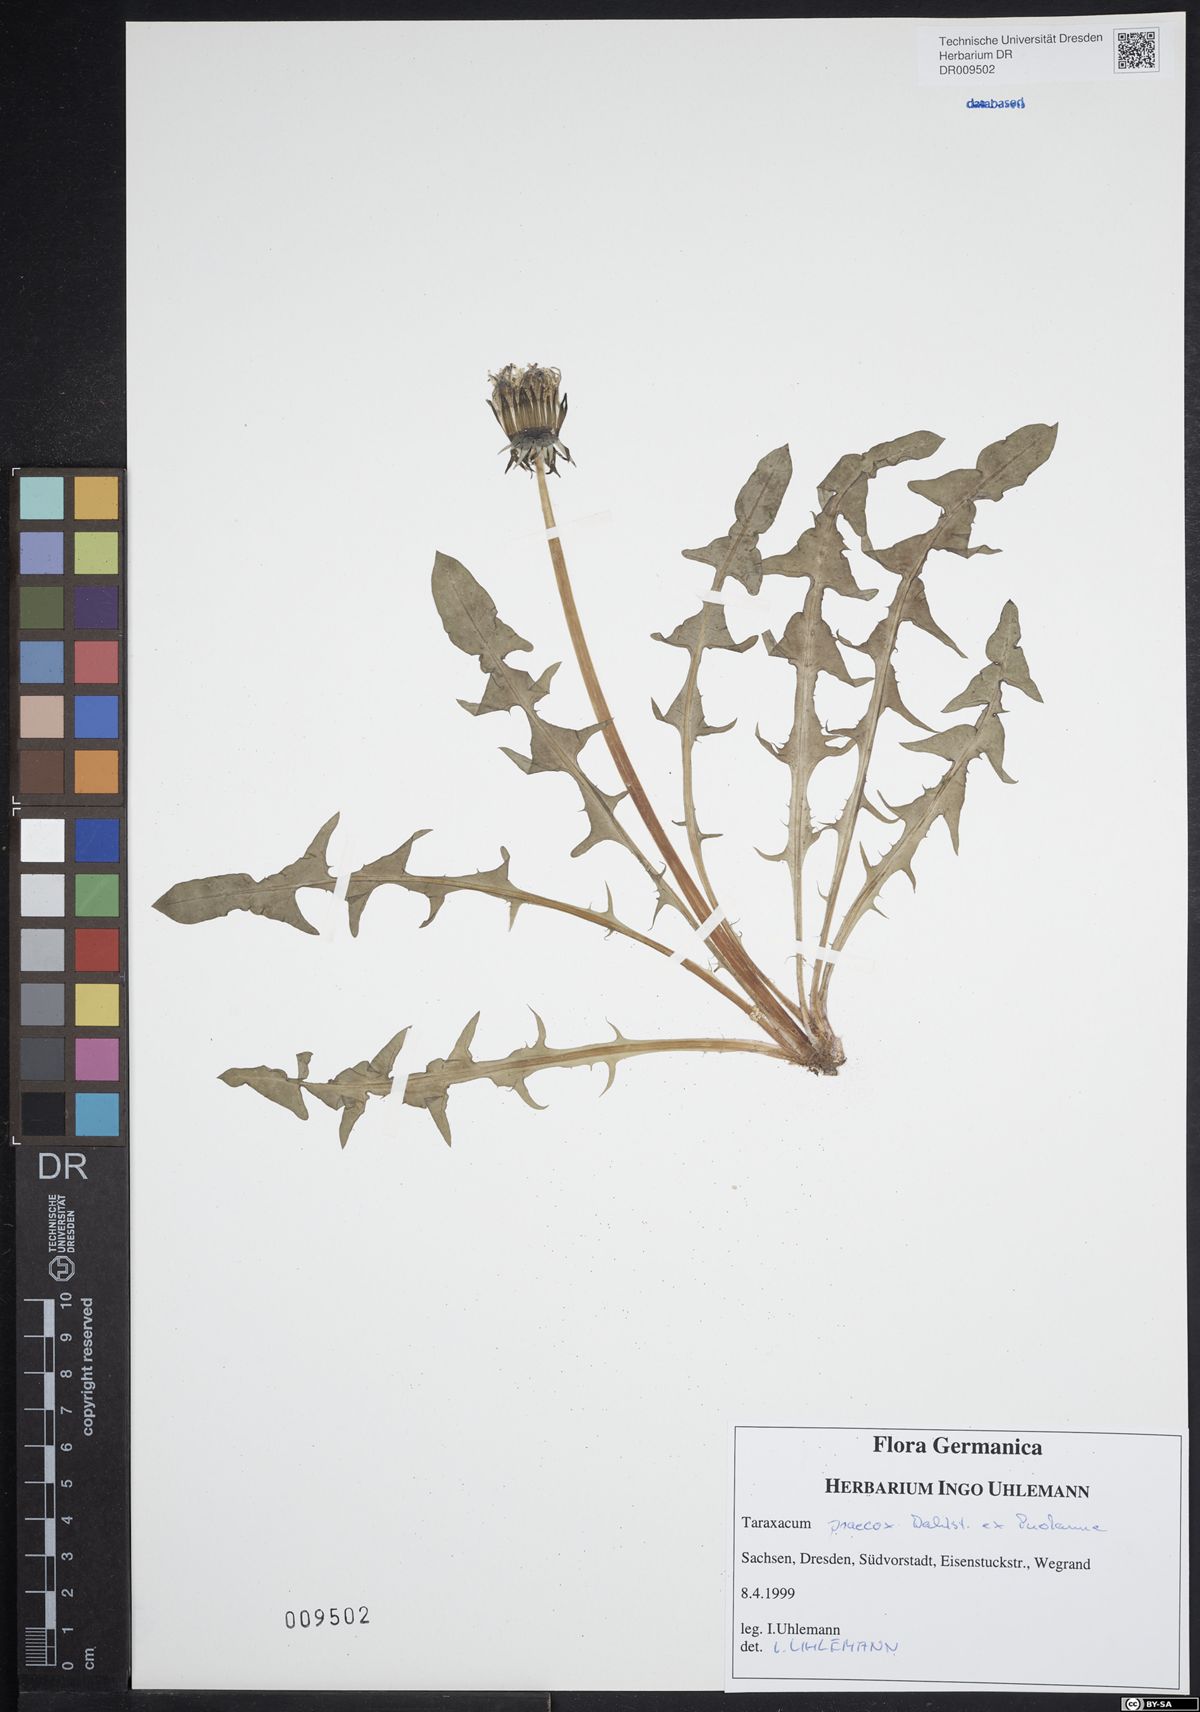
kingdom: Plantae
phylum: Tracheophyta
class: Magnoliopsida
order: Asterales
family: Asteraceae
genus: Taraxacum
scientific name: Taraxacum praecox
